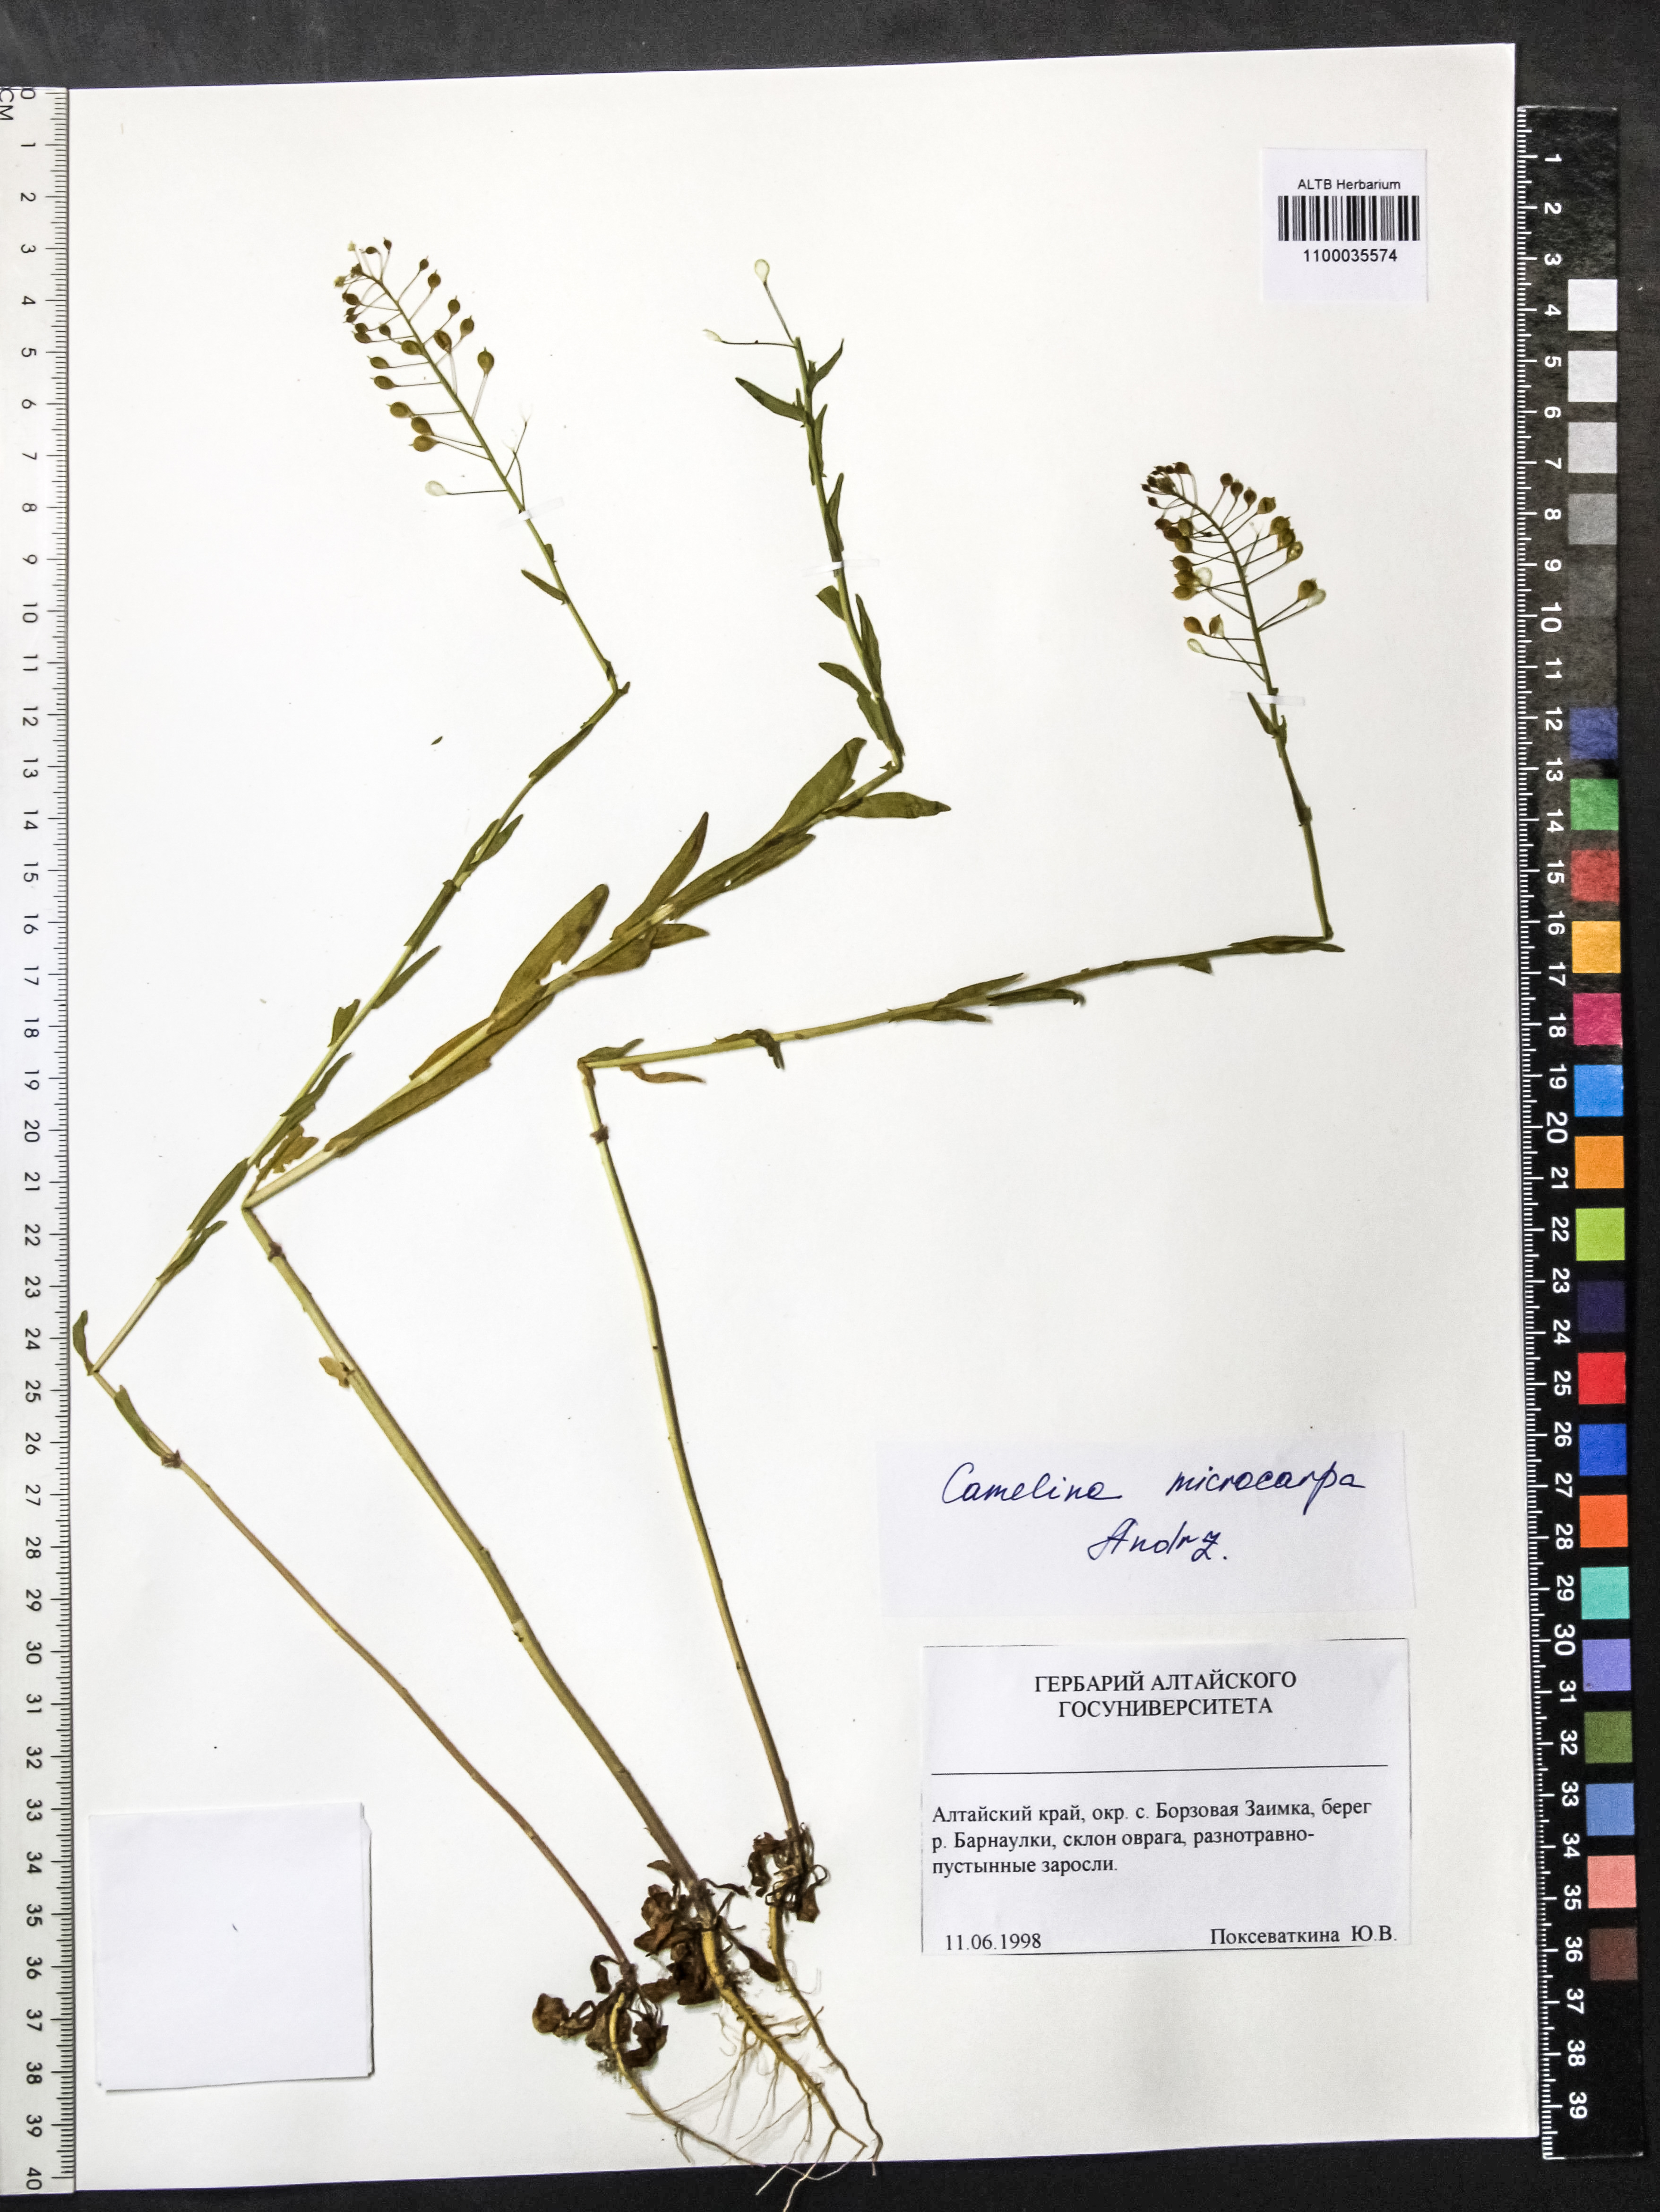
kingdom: Plantae
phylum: Tracheophyta
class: Magnoliopsida
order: Brassicales
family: Brassicaceae
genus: Camelina
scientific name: Camelina microcarpa
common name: Lesser gold-of-pleasure
